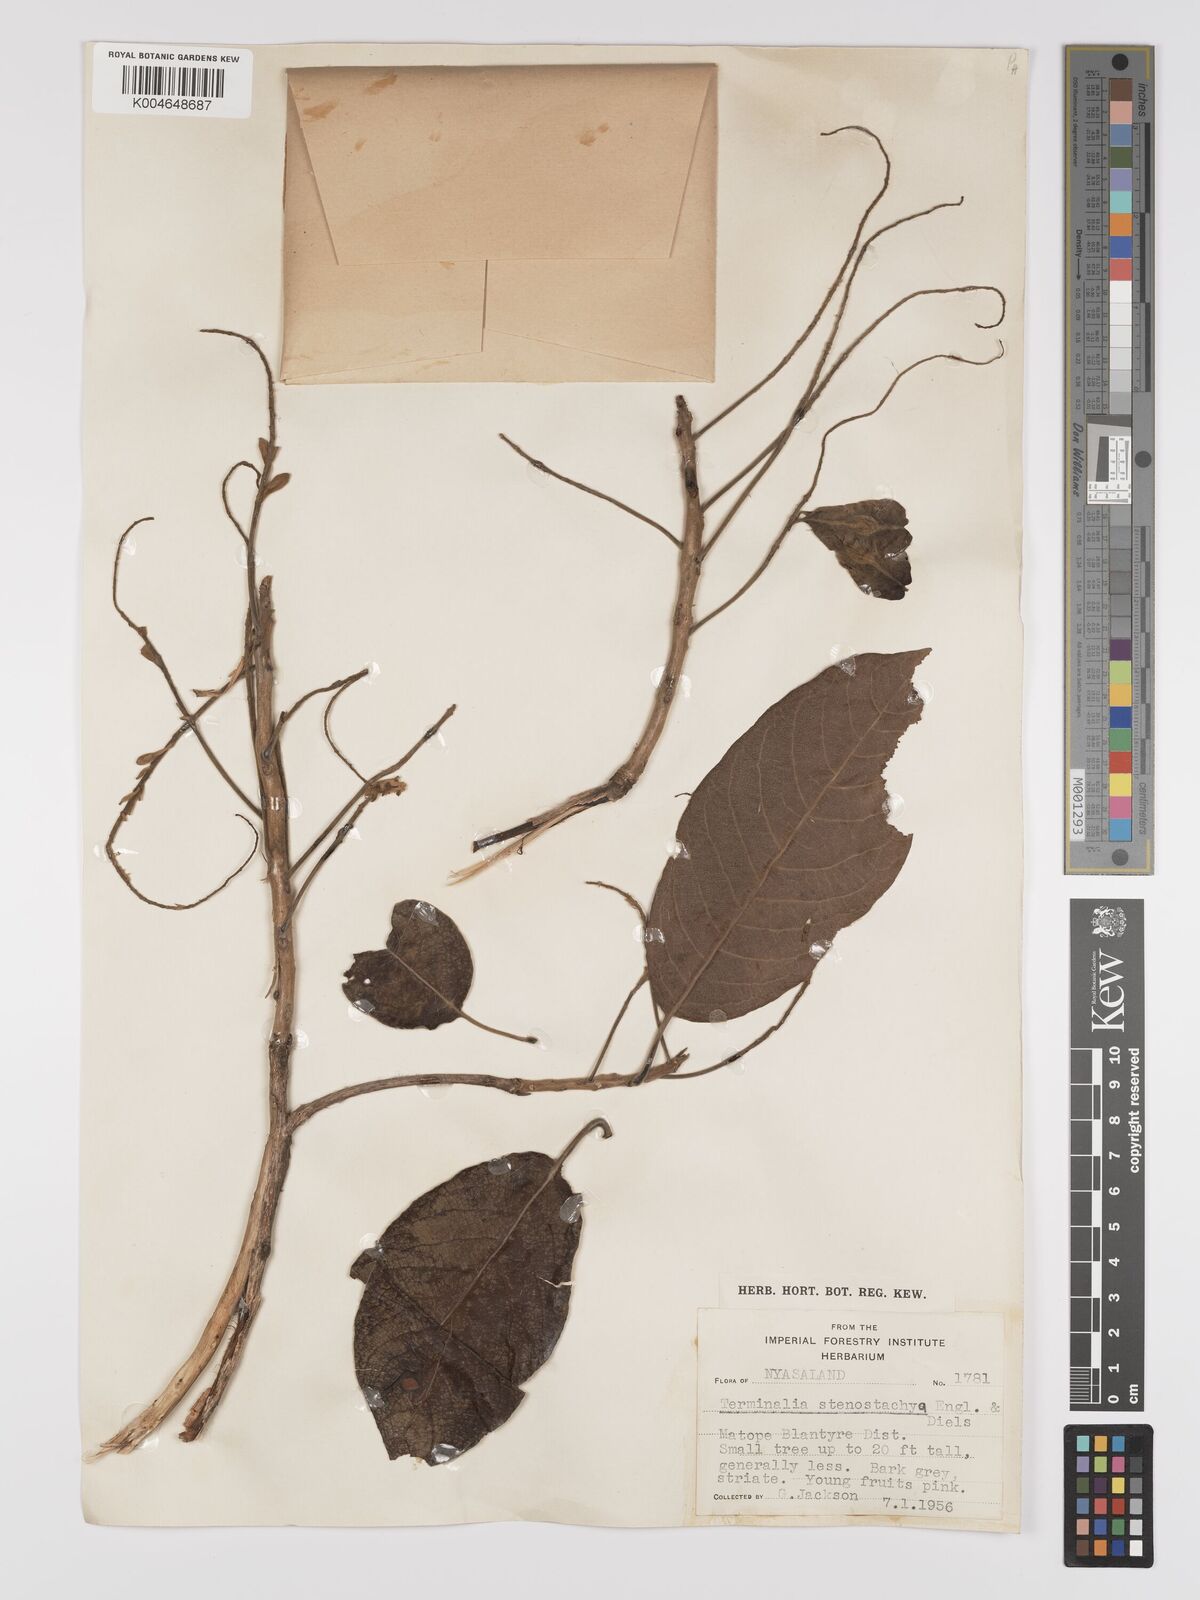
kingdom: Plantae
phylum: Tracheophyta
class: Magnoliopsida
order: Myrtales
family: Combretaceae
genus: Terminalia
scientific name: Terminalia stenostachya
